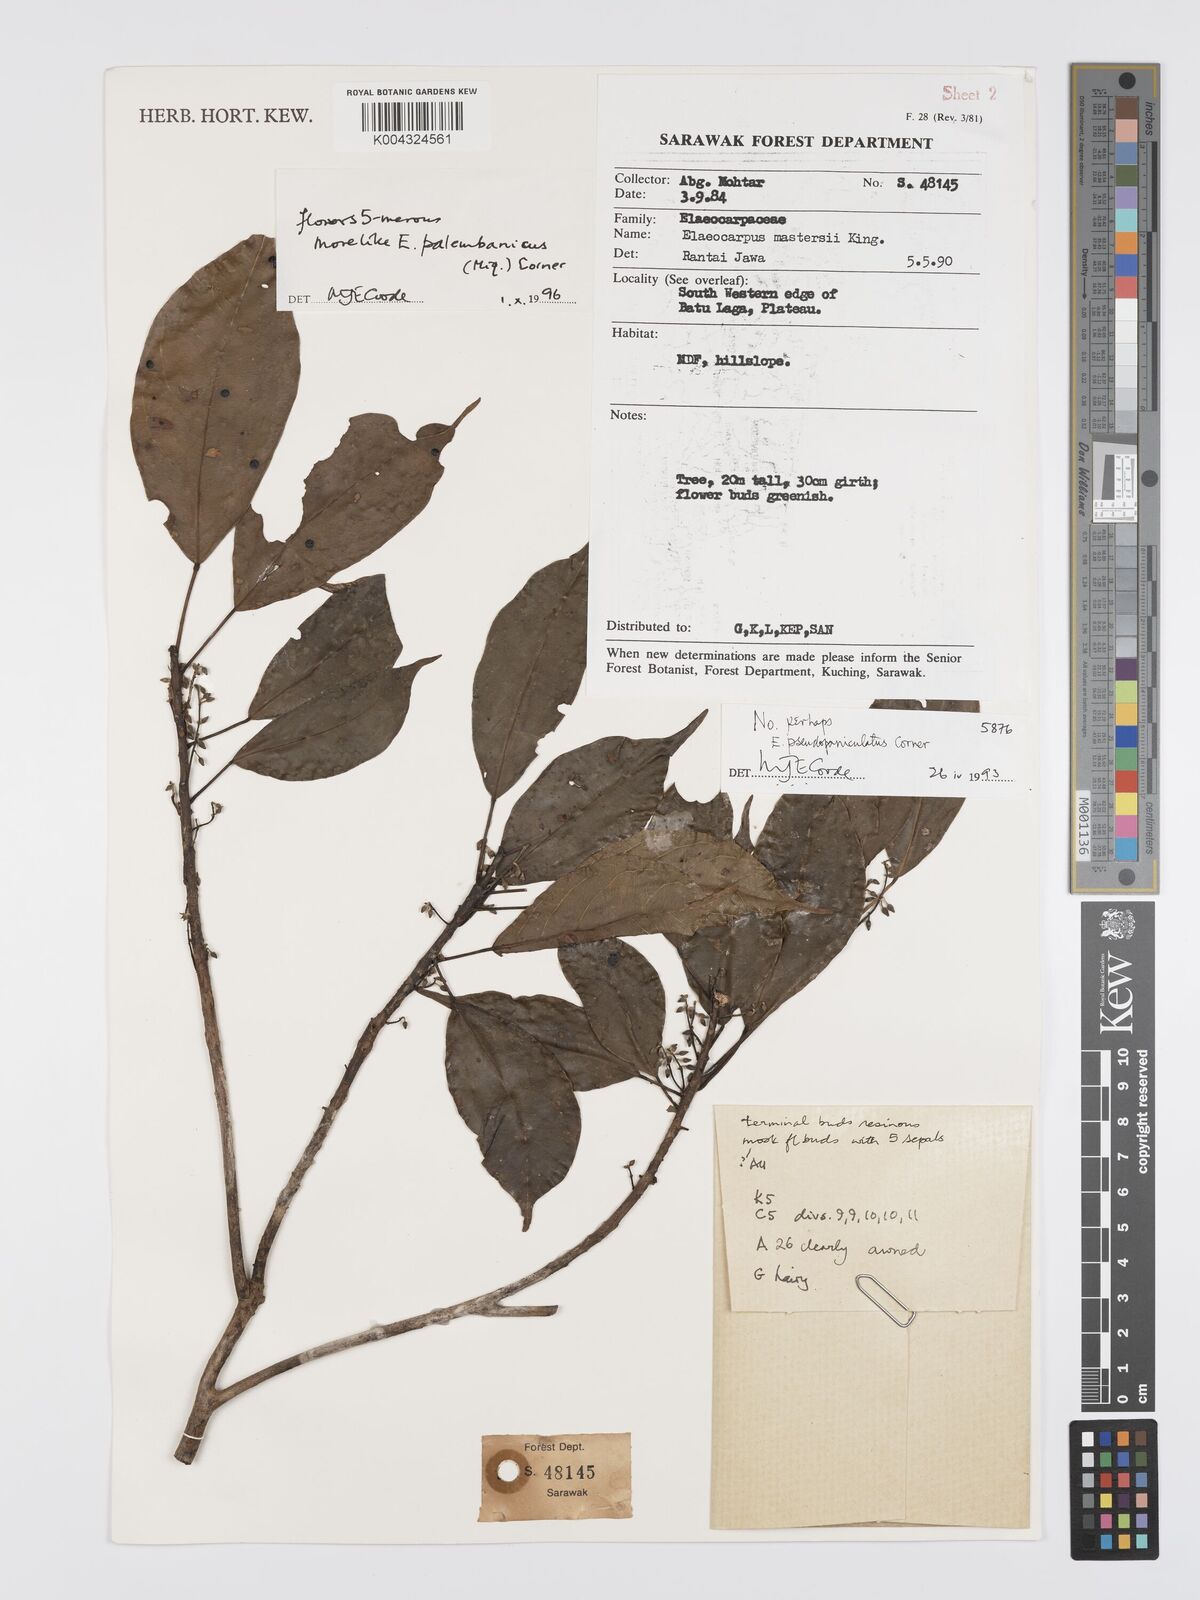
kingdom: Plantae
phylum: Tracheophyta
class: Magnoliopsida
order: Oxalidales
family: Elaeocarpaceae
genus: Elaeocarpus
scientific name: Elaeocarpus palembanicus
